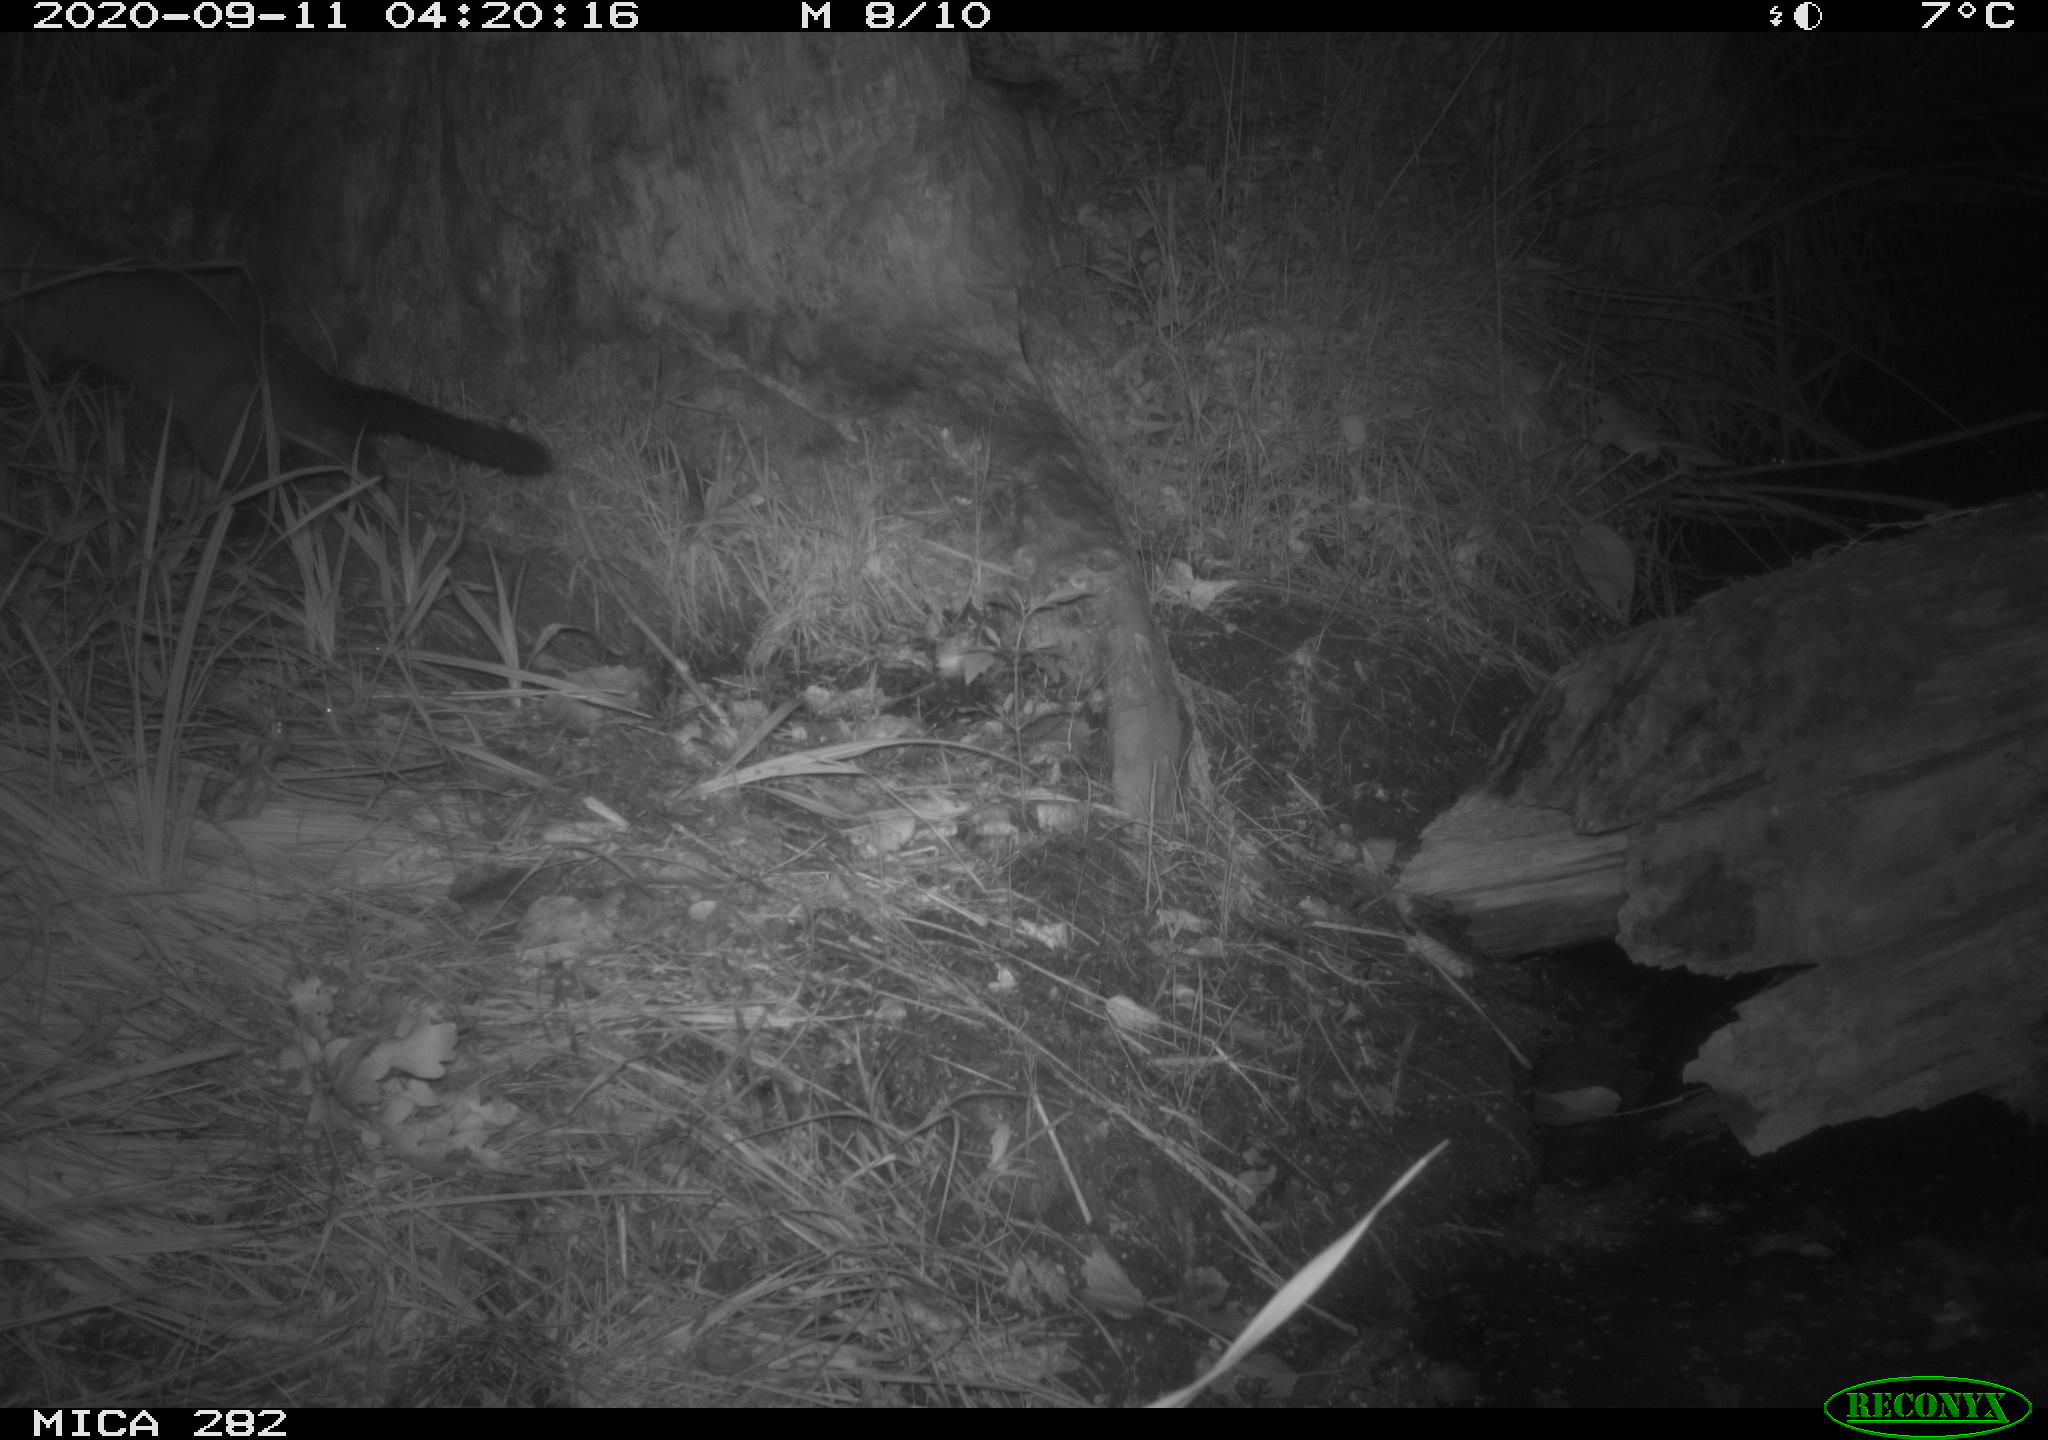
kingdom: Animalia
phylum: Chordata
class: Mammalia
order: Carnivora
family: Mustelidae
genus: Martes
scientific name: Martes foina
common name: Beech marten
